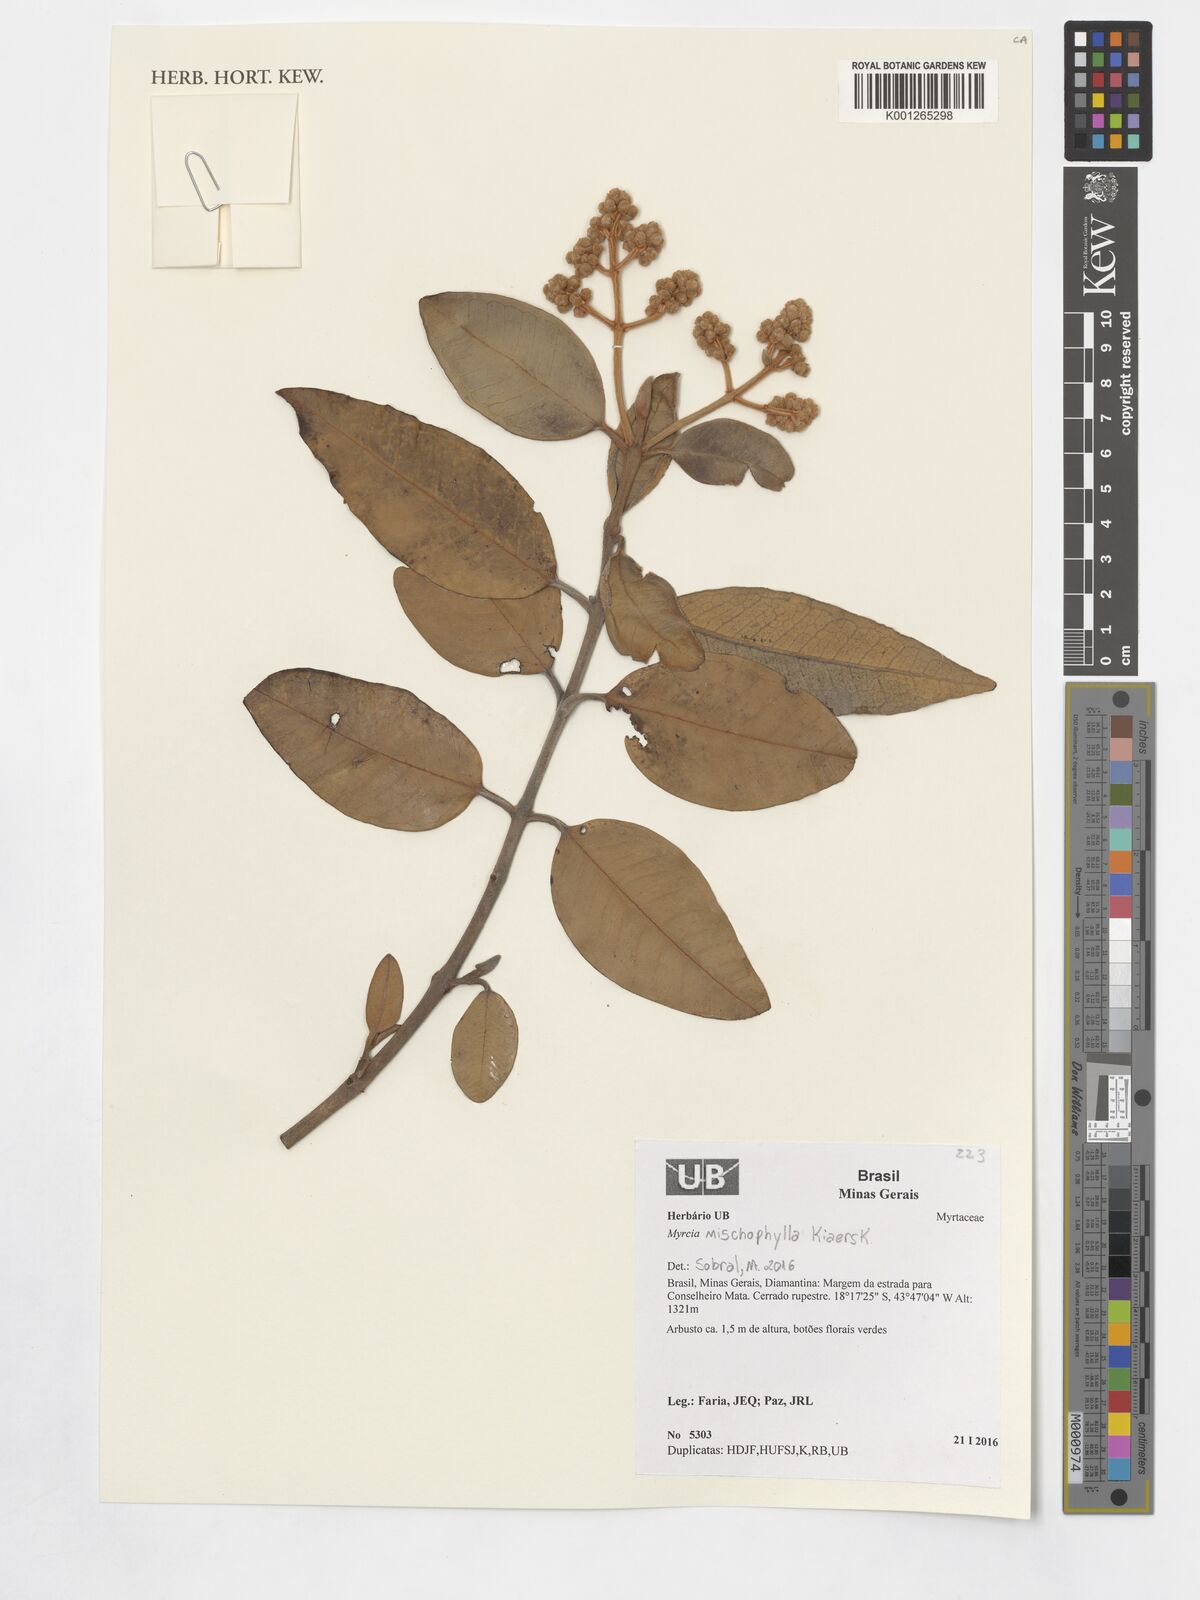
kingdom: Plantae
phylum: Tracheophyta
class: Magnoliopsida
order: Myrtales
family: Myrtaceae
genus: Myrcia
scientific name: Myrcia mischophylla
